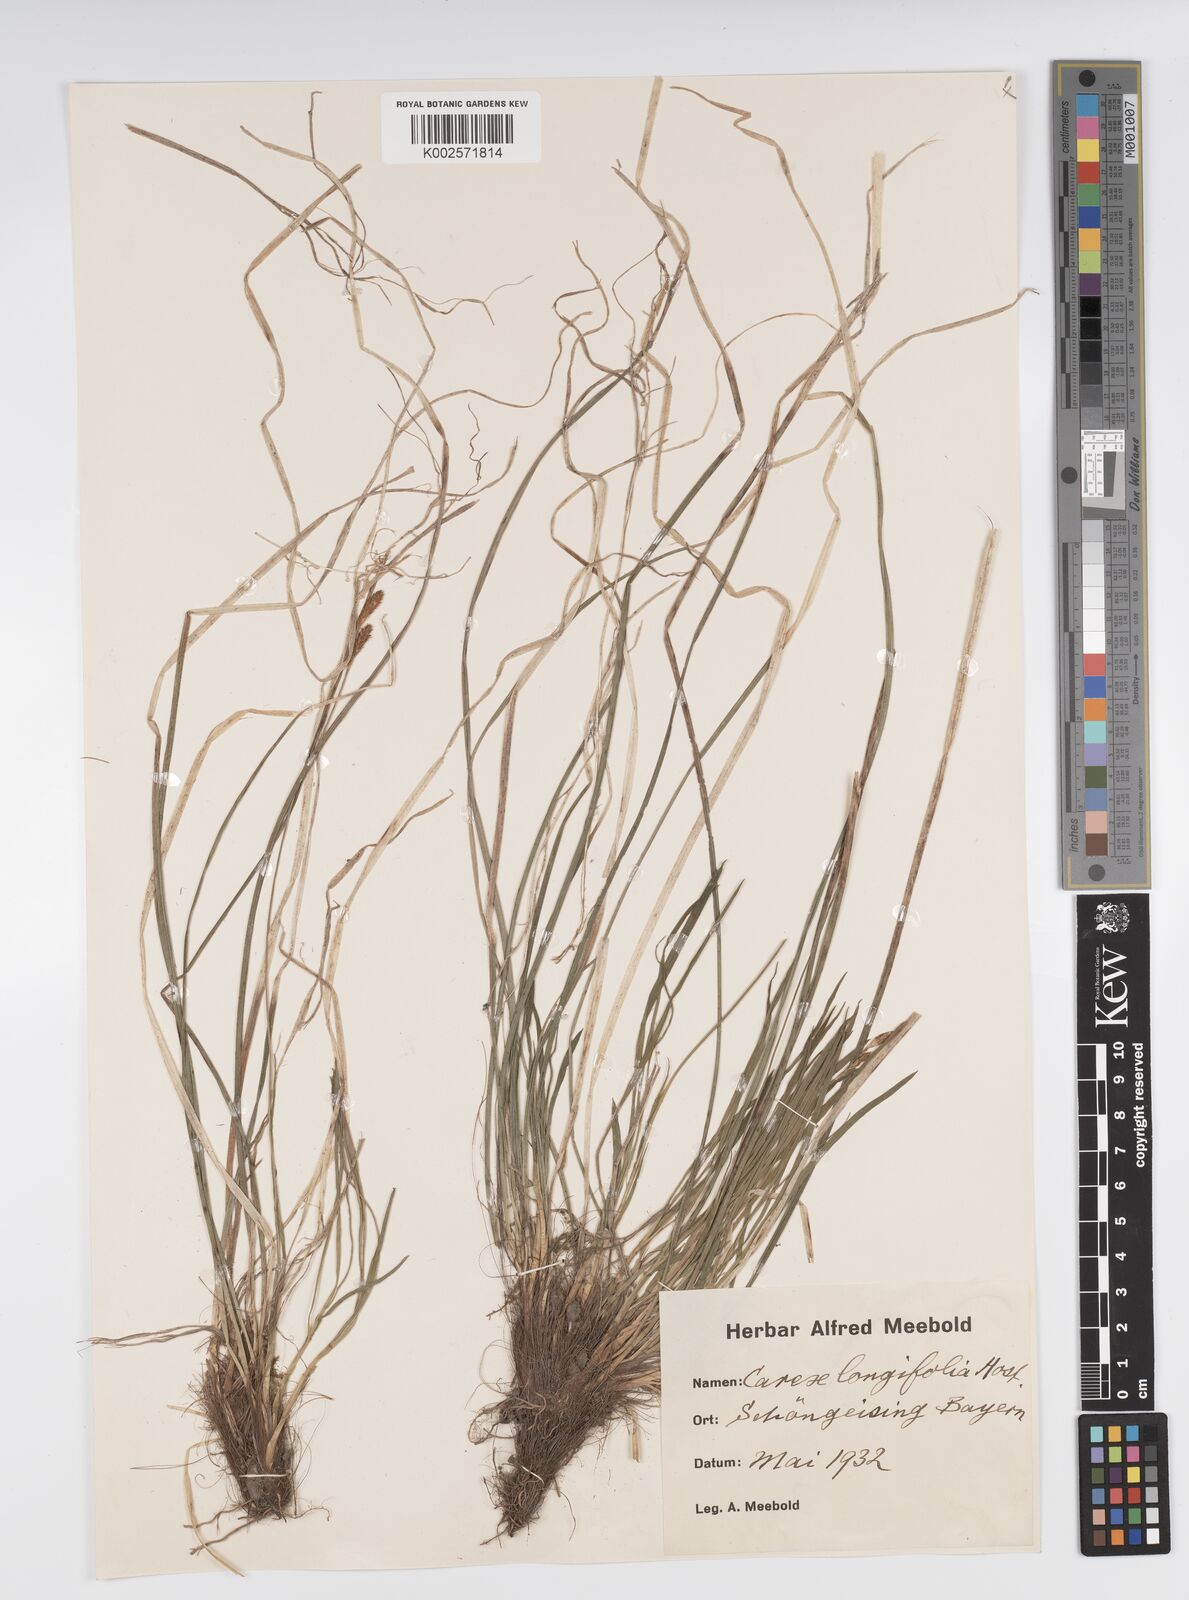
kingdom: Plantae
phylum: Tracheophyta
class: Liliopsida
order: Poales
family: Cyperaceae
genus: Carex
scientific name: Carex umbrosa
